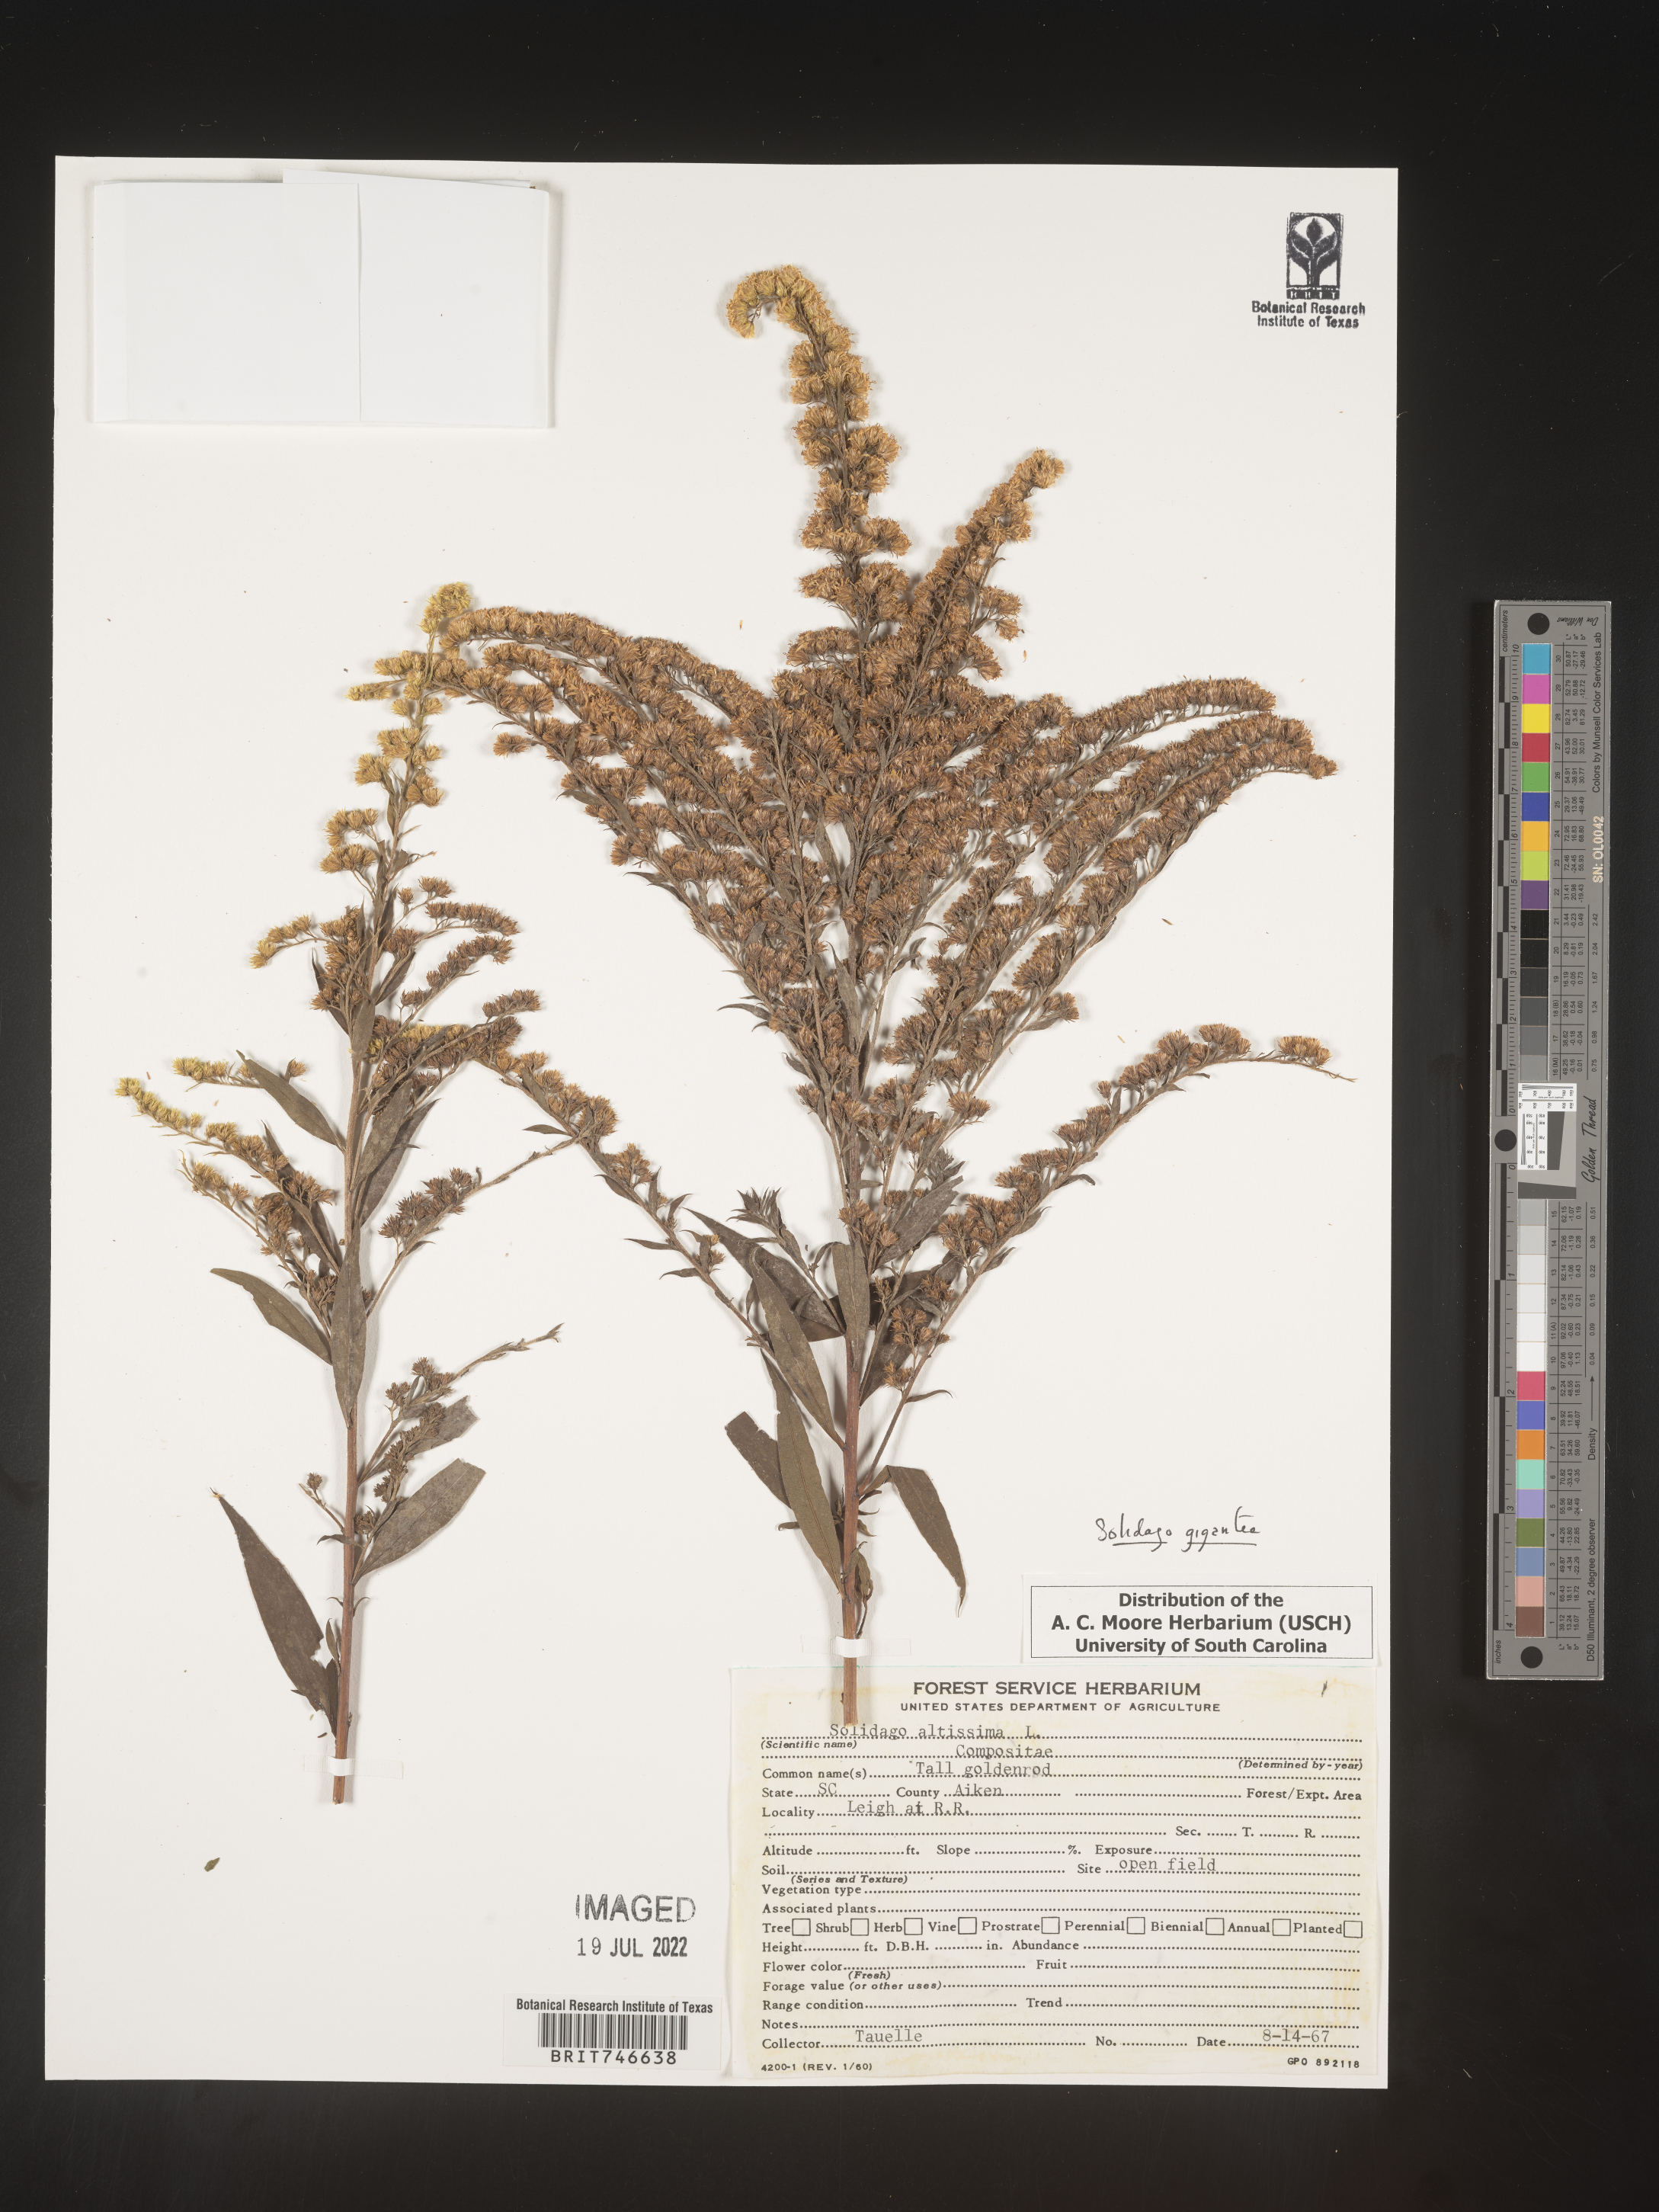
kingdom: Plantae
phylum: Tracheophyta
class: Magnoliopsida
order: Asterales
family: Asteraceae
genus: Solidago
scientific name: Solidago gigantea
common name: Giant goldenrod
